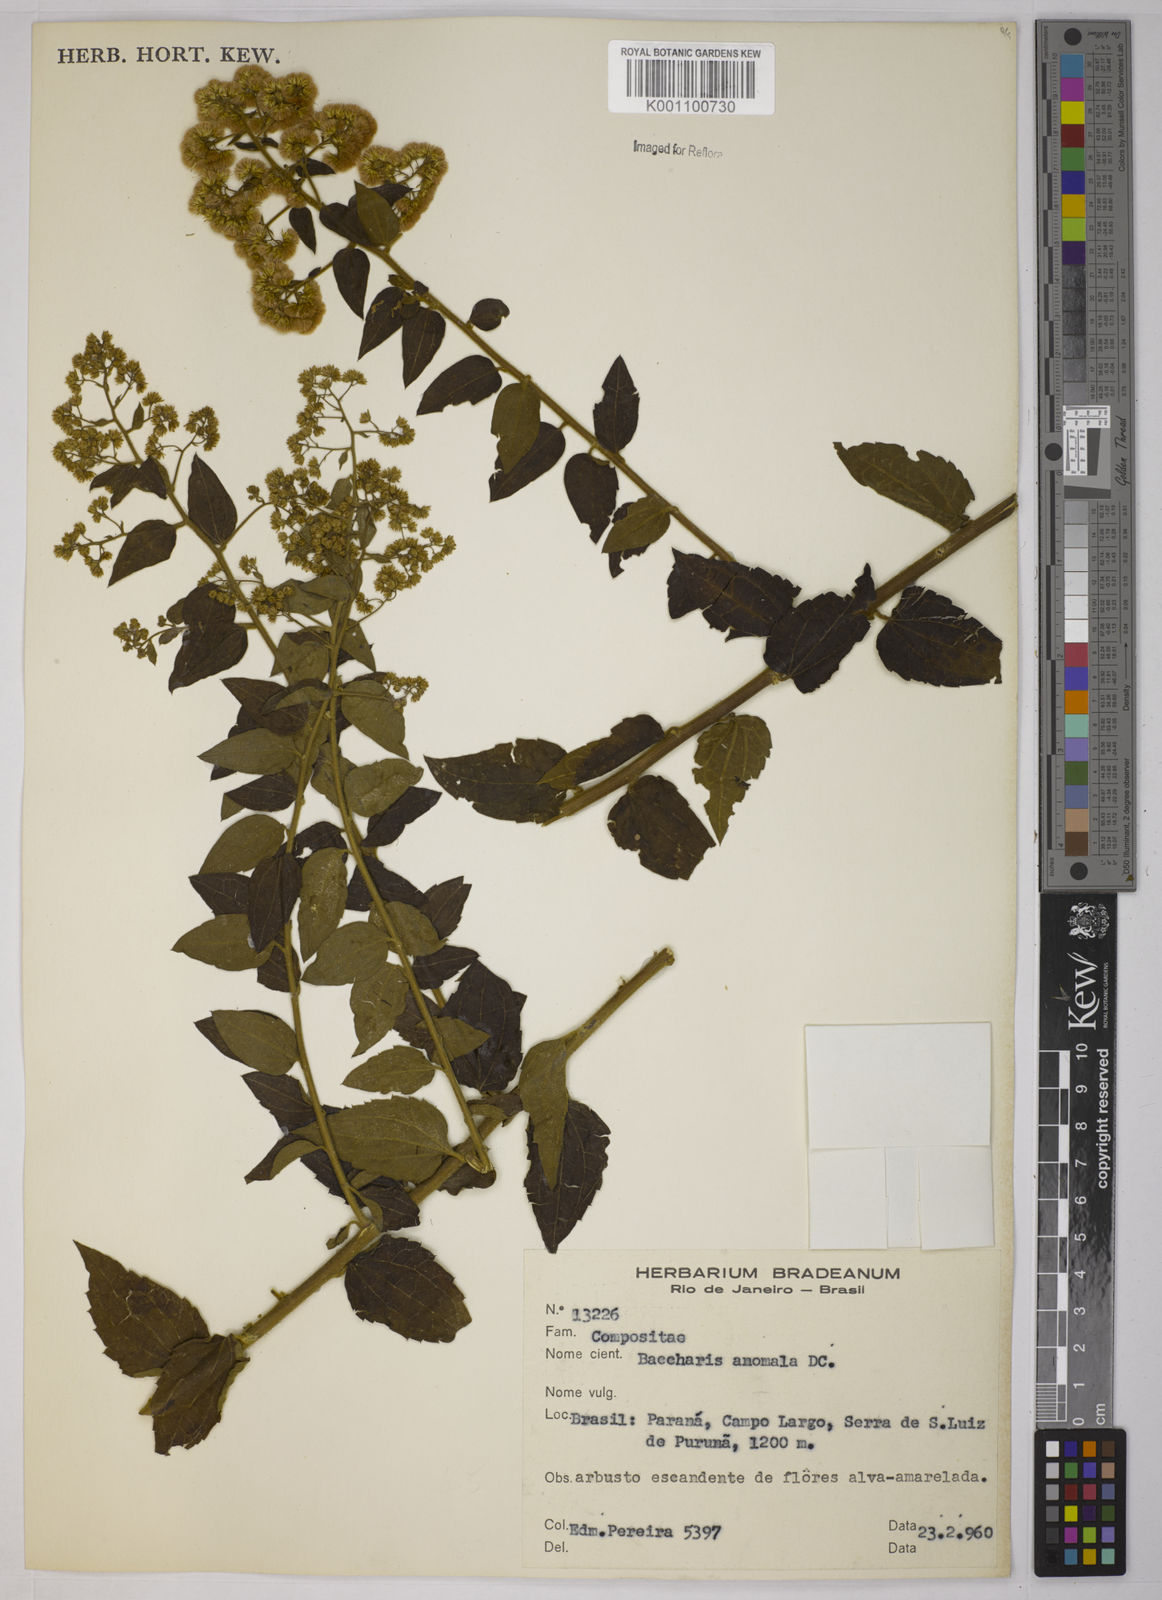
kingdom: Plantae
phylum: Tracheophyta
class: Magnoliopsida
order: Asterales
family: Asteraceae
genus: Baccharis
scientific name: Baccharis anomala
